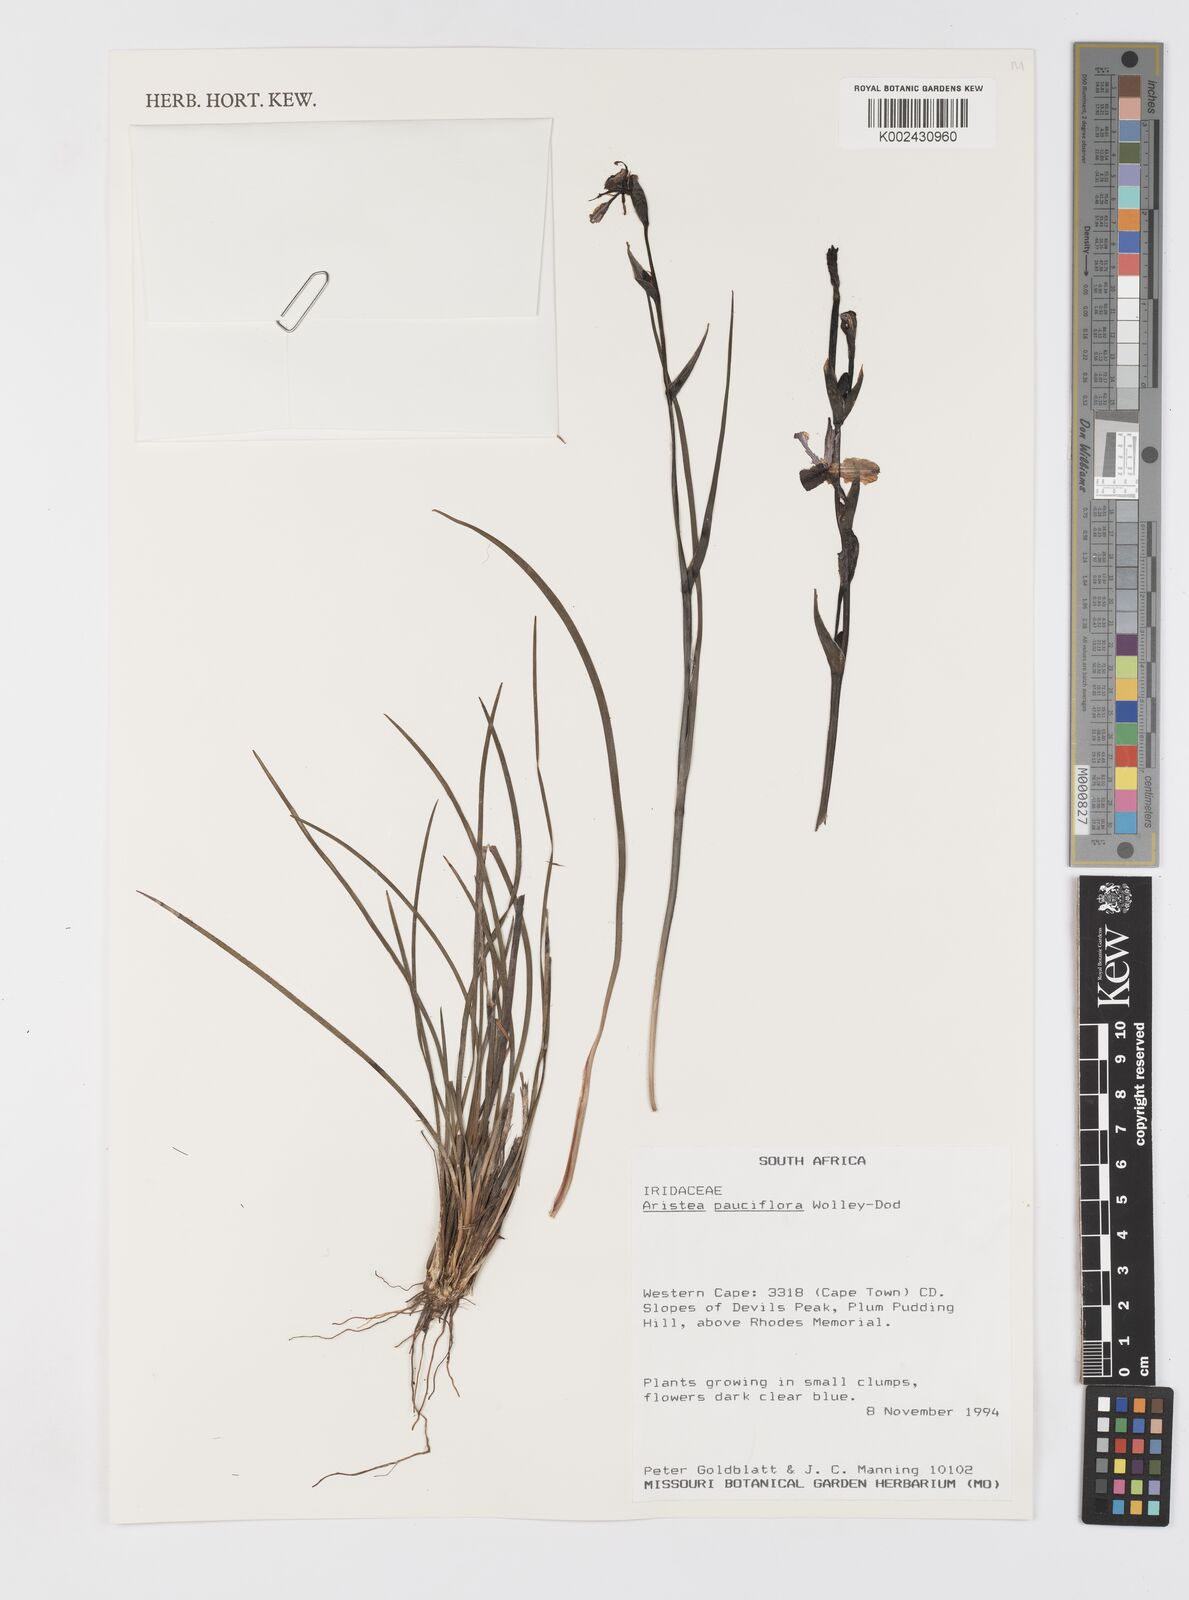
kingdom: Plantae
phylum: Tracheophyta
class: Liliopsida
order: Asparagales
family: Iridaceae
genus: Aristea
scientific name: Aristea pauciflora
